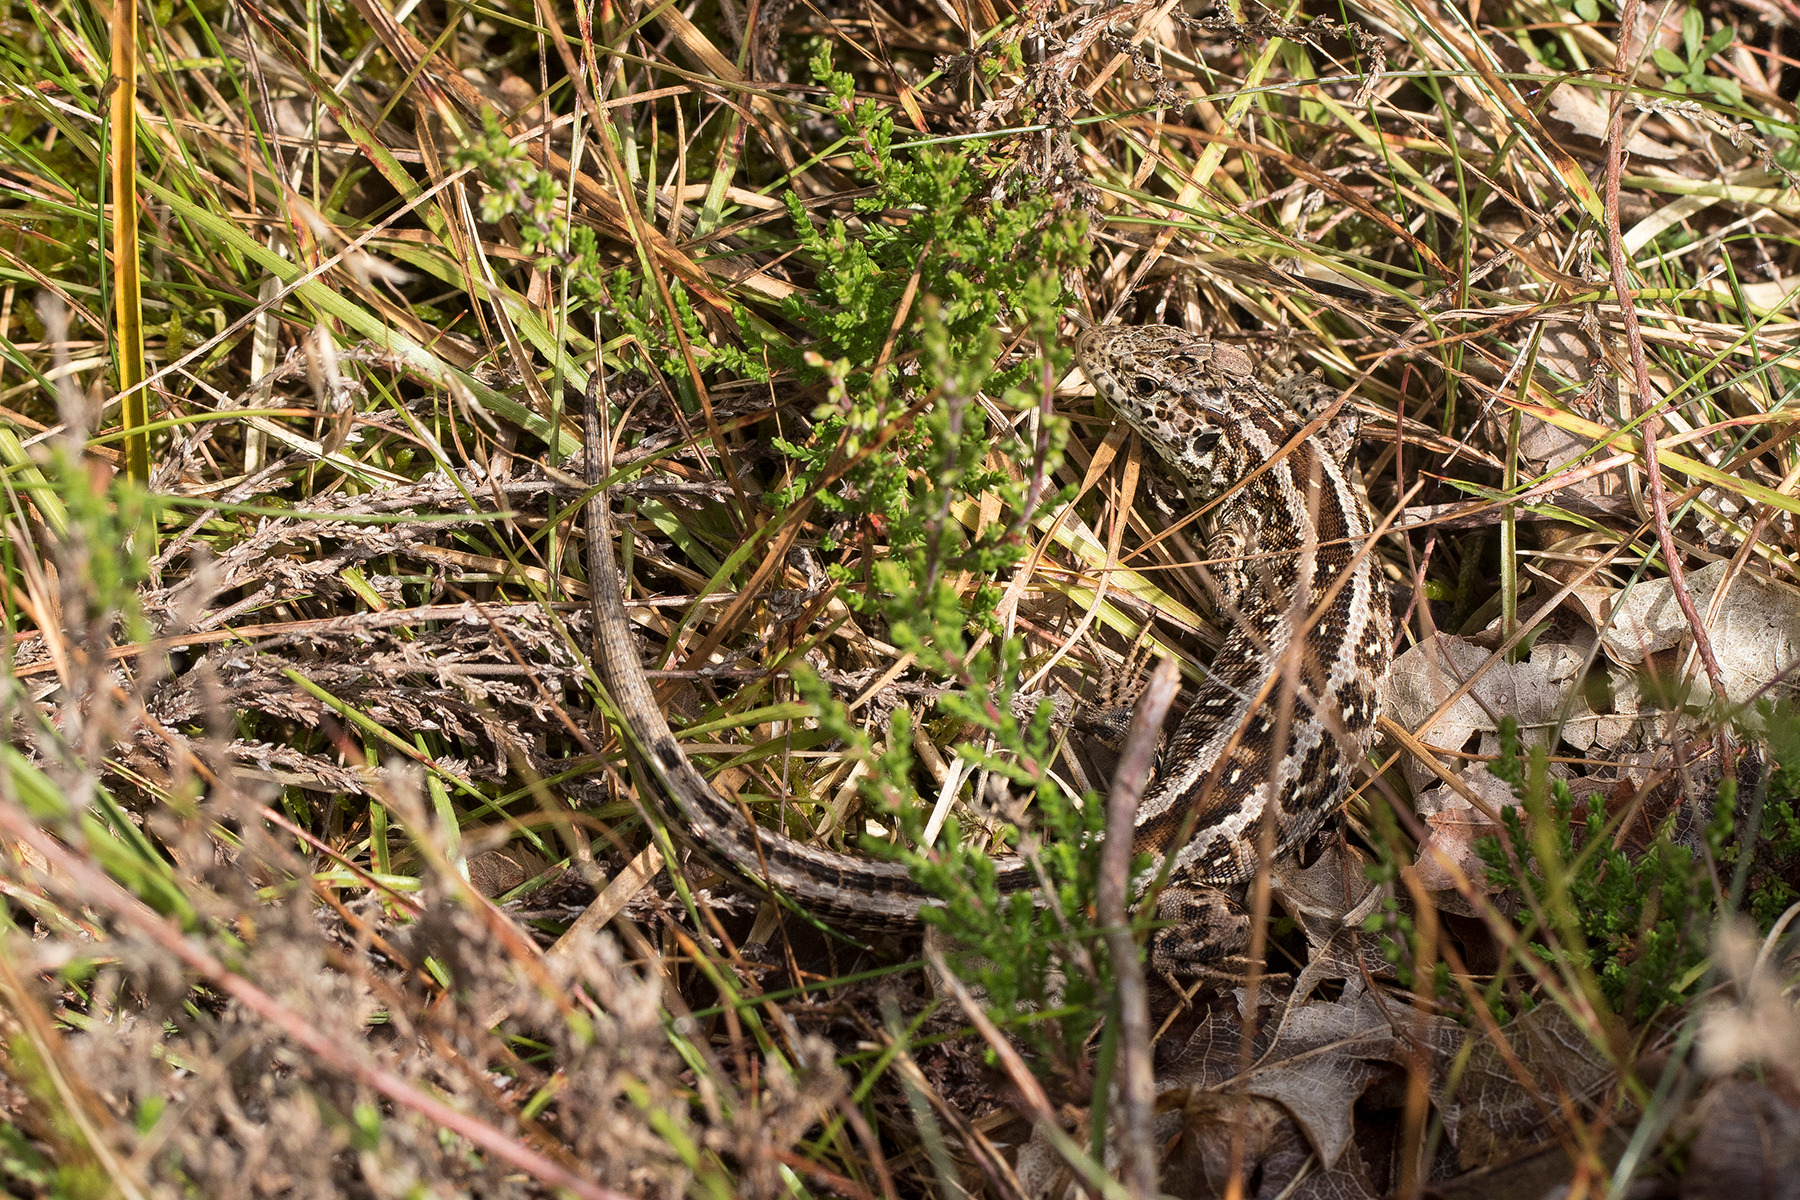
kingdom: Animalia
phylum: Chordata
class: Squamata
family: Lacertidae
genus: Lacerta
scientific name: Lacerta agilis
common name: Markfirben
